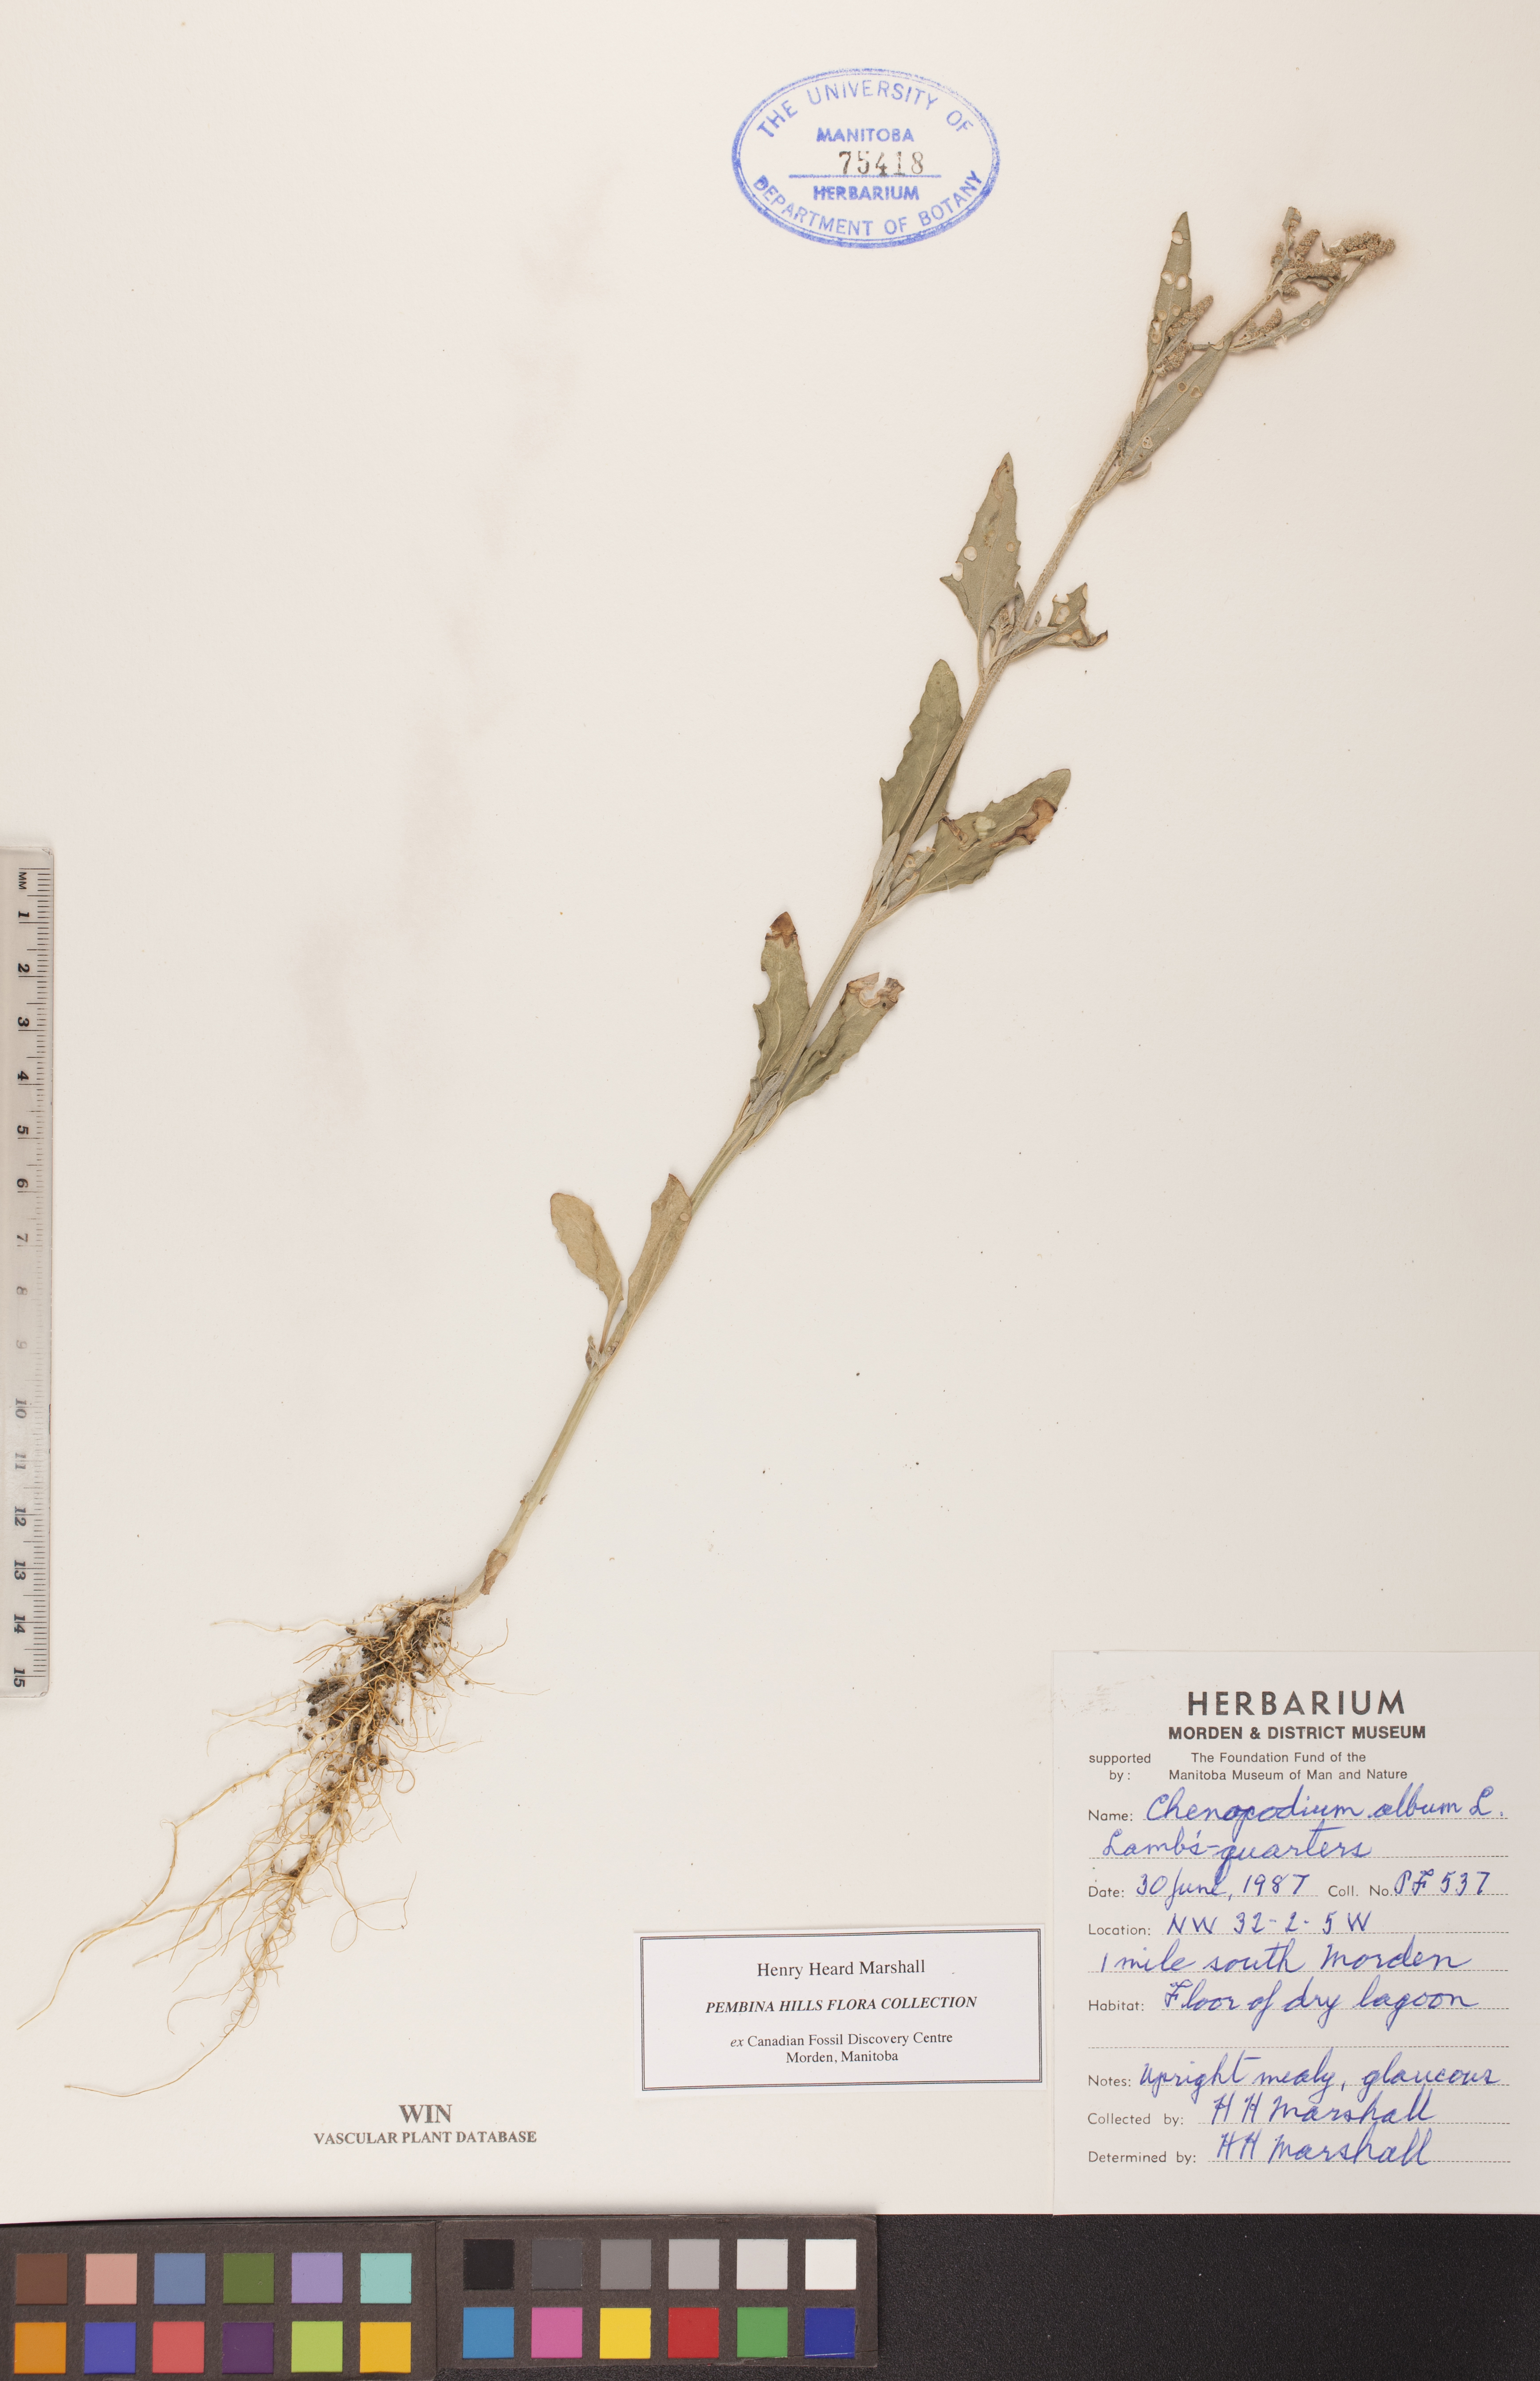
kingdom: Plantae
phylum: Tracheophyta
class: Magnoliopsida
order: Caryophyllales
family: Amaranthaceae
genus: Chenopodium
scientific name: Chenopodium album
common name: Fat-hen
